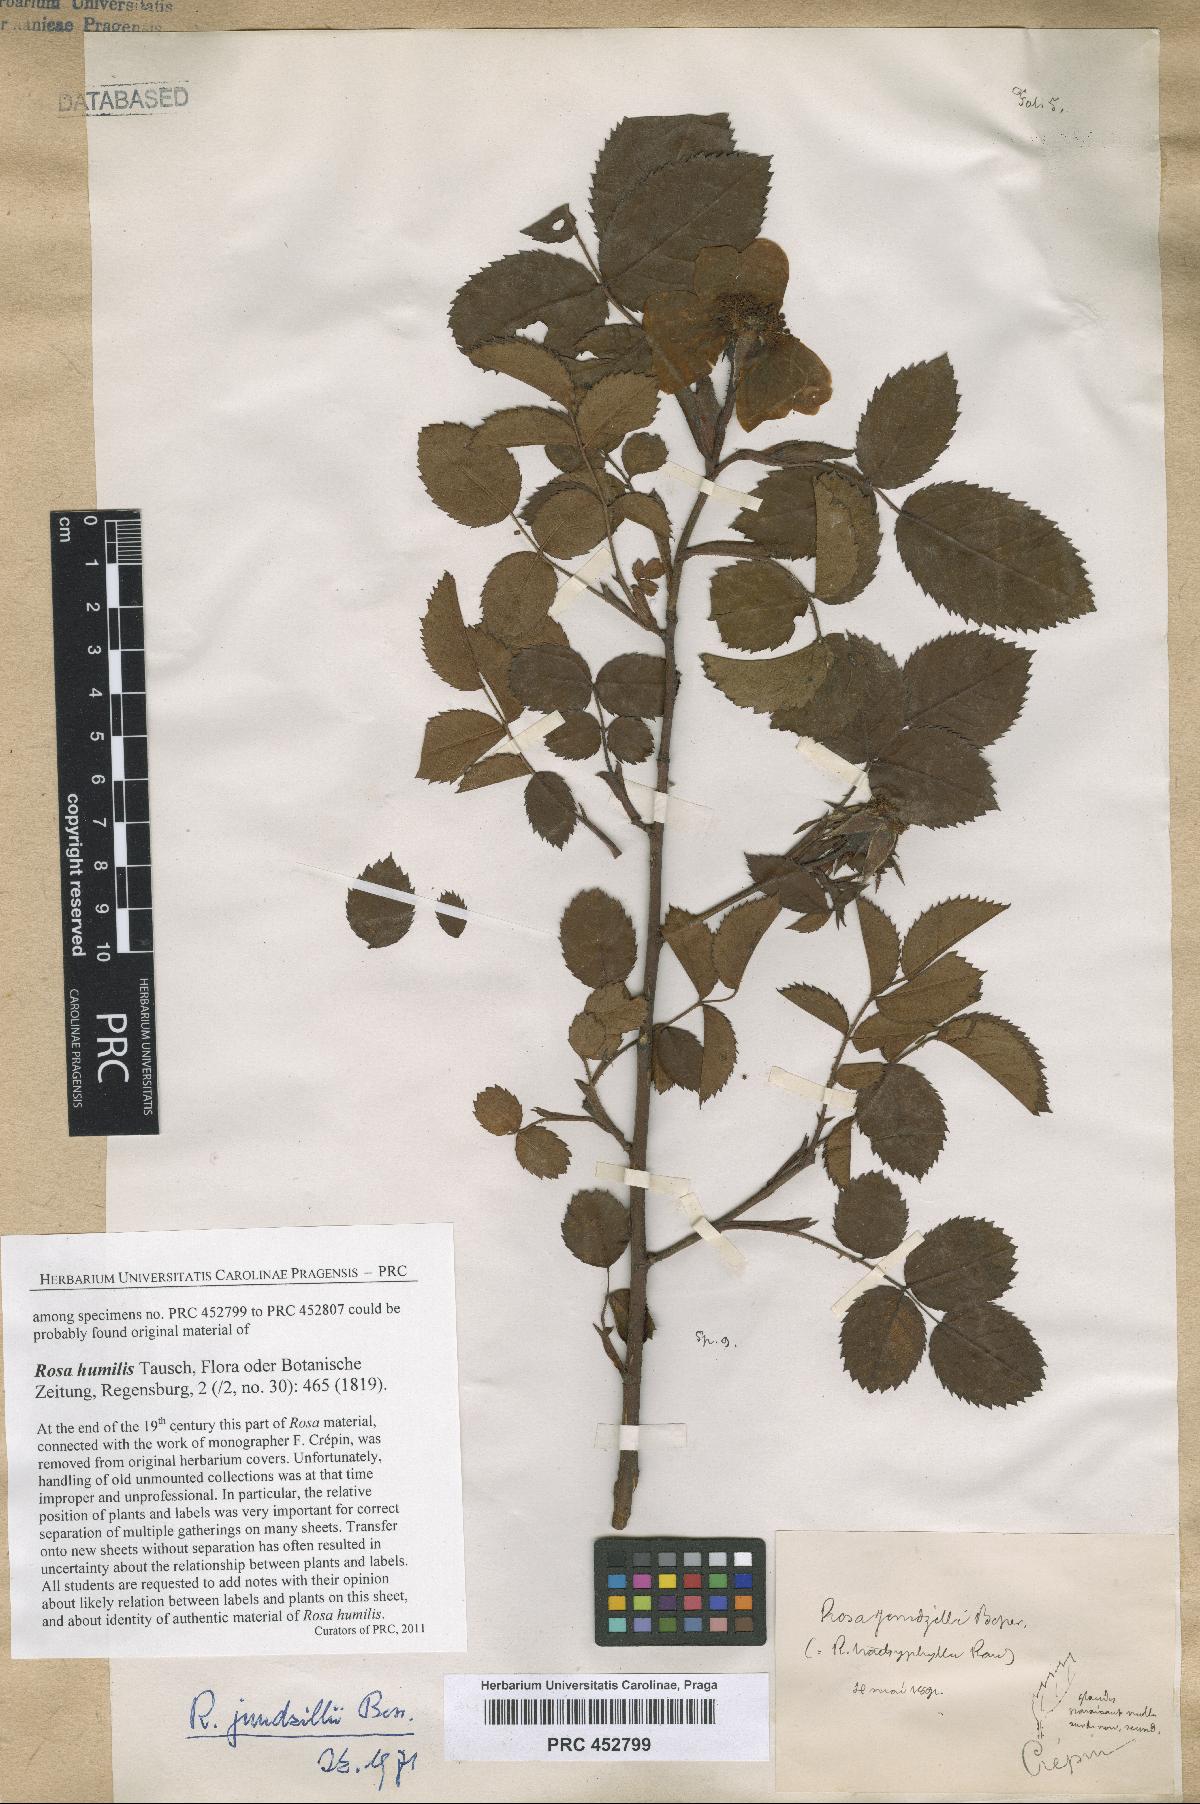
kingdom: Plantae
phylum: Tracheophyta
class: Magnoliopsida
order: Rosales
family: Rosaceae
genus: Rosa
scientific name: Rosa marginata
